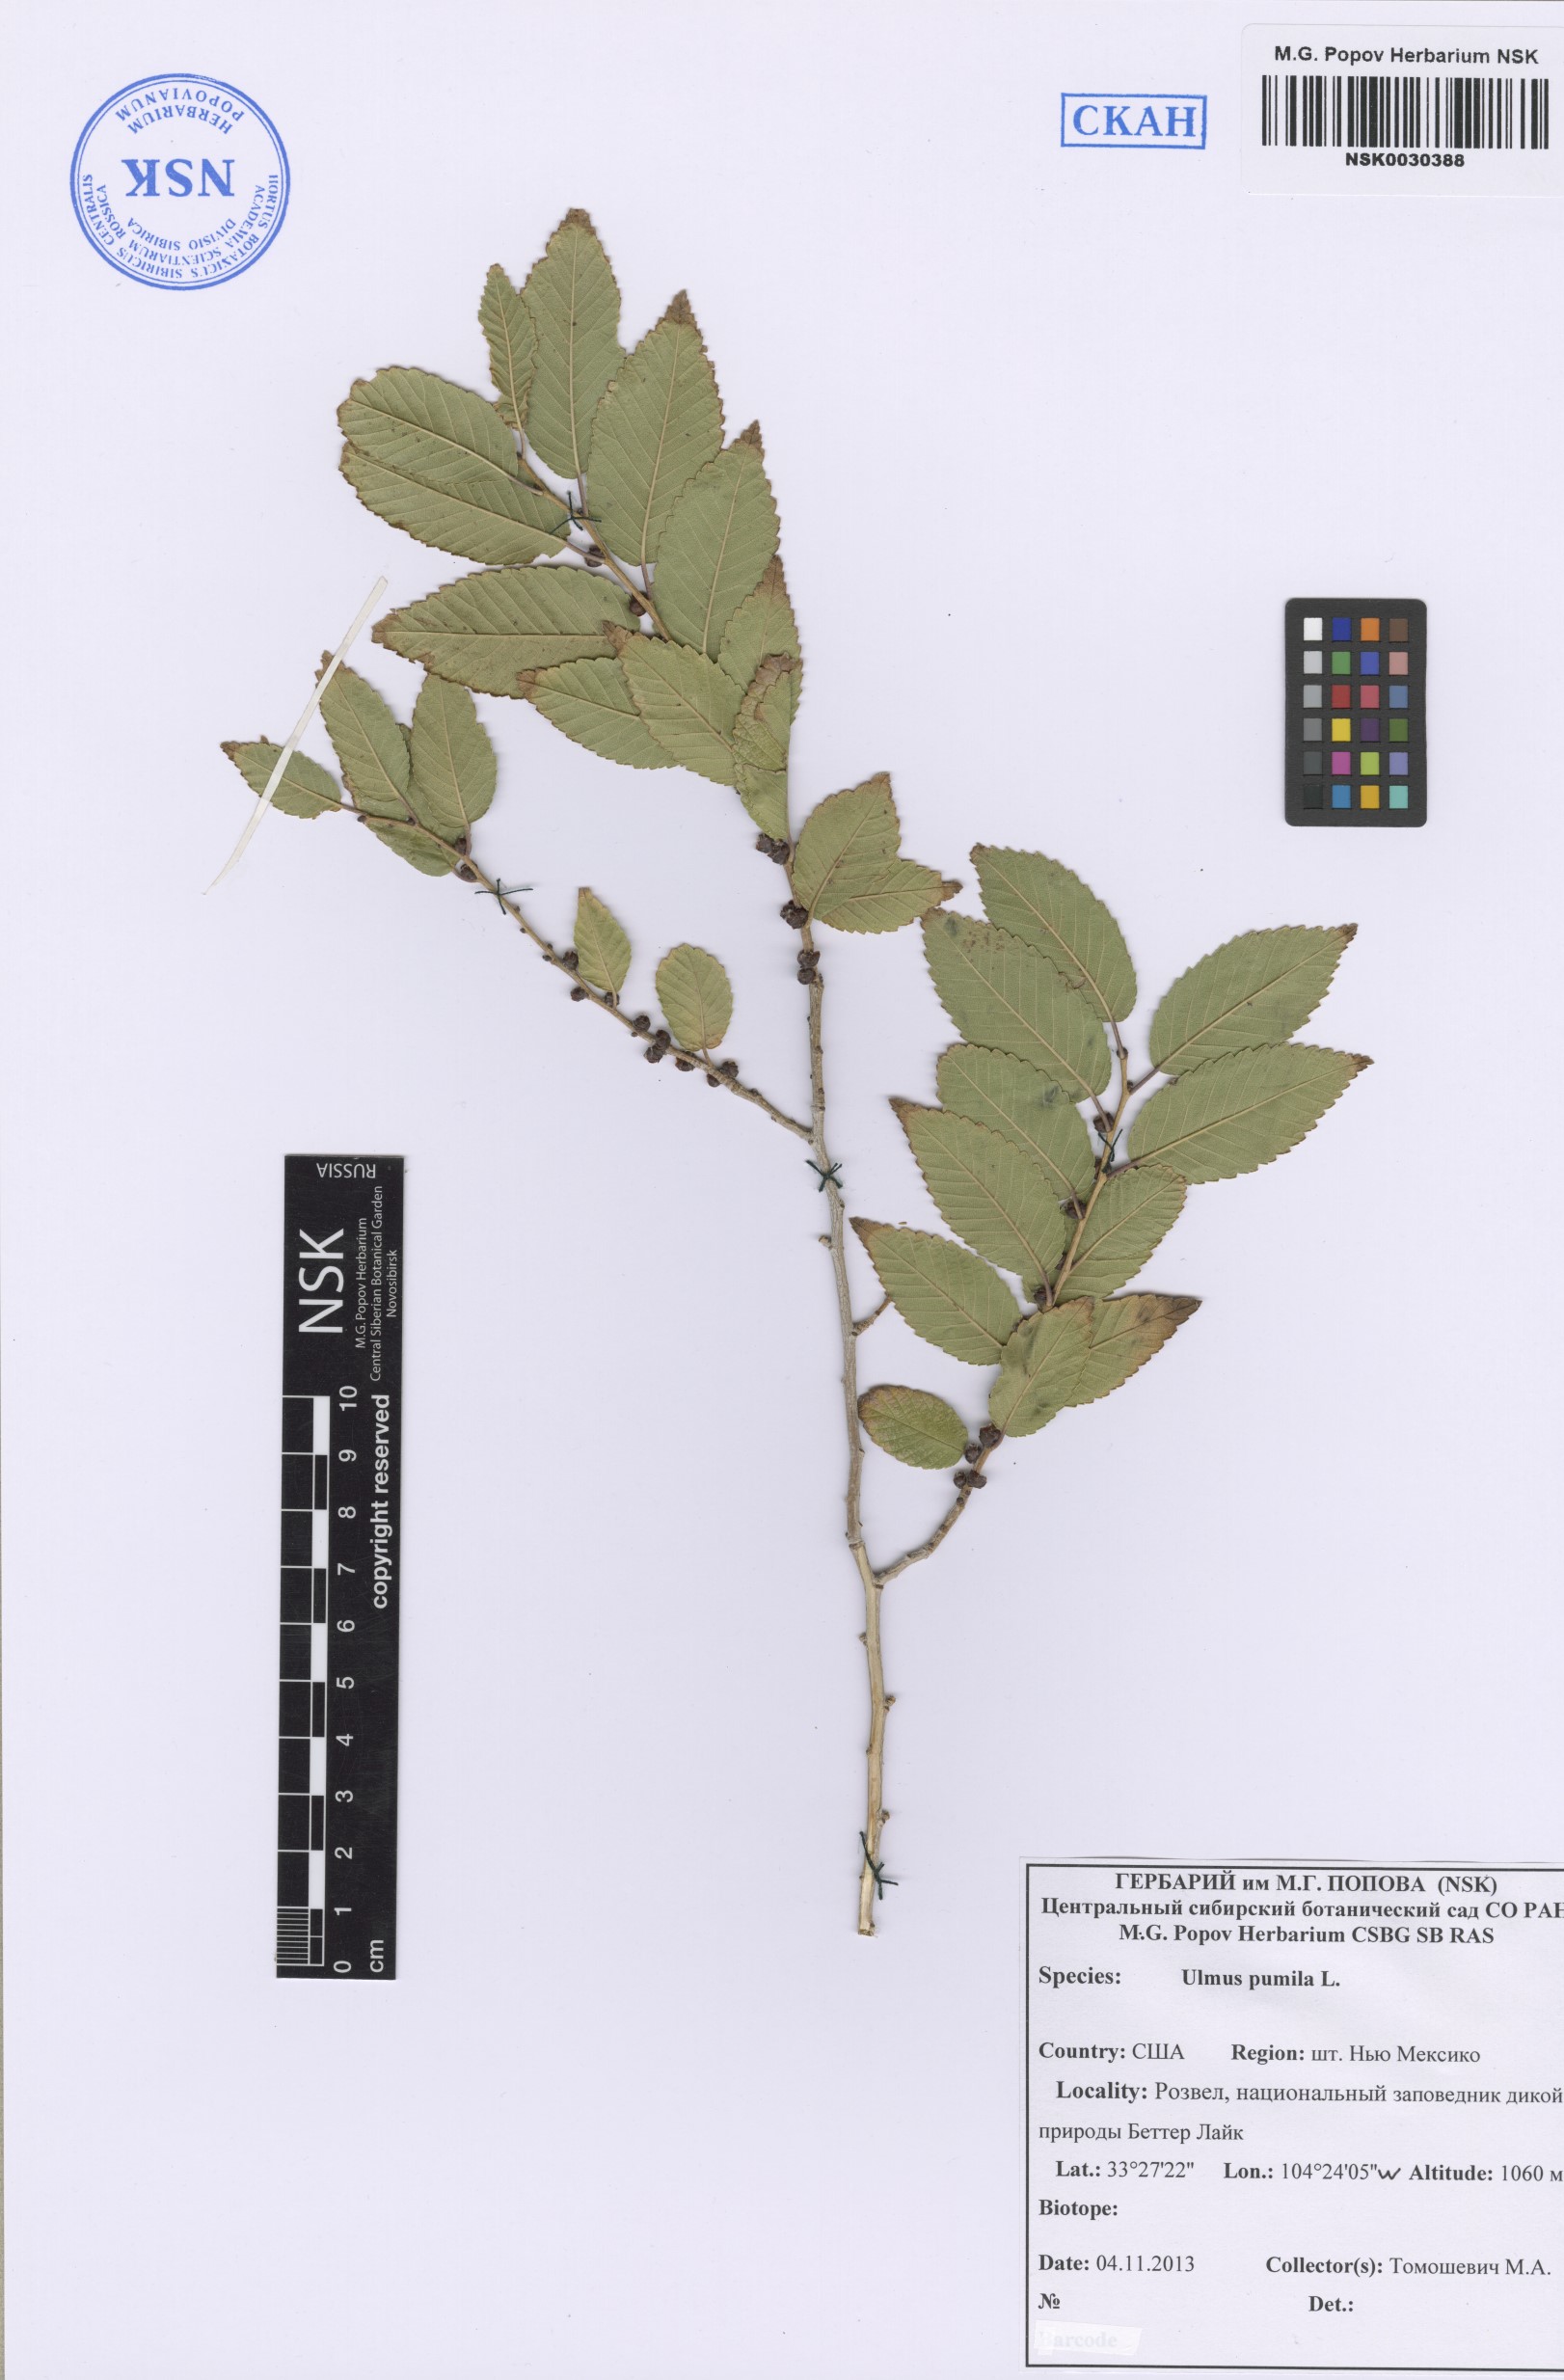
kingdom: Plantae
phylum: Tracheophyta
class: Magnoliopsida
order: Rosales
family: Ulmaceae
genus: Ulmus
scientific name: Ulmus pumila
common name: Siberian elm
